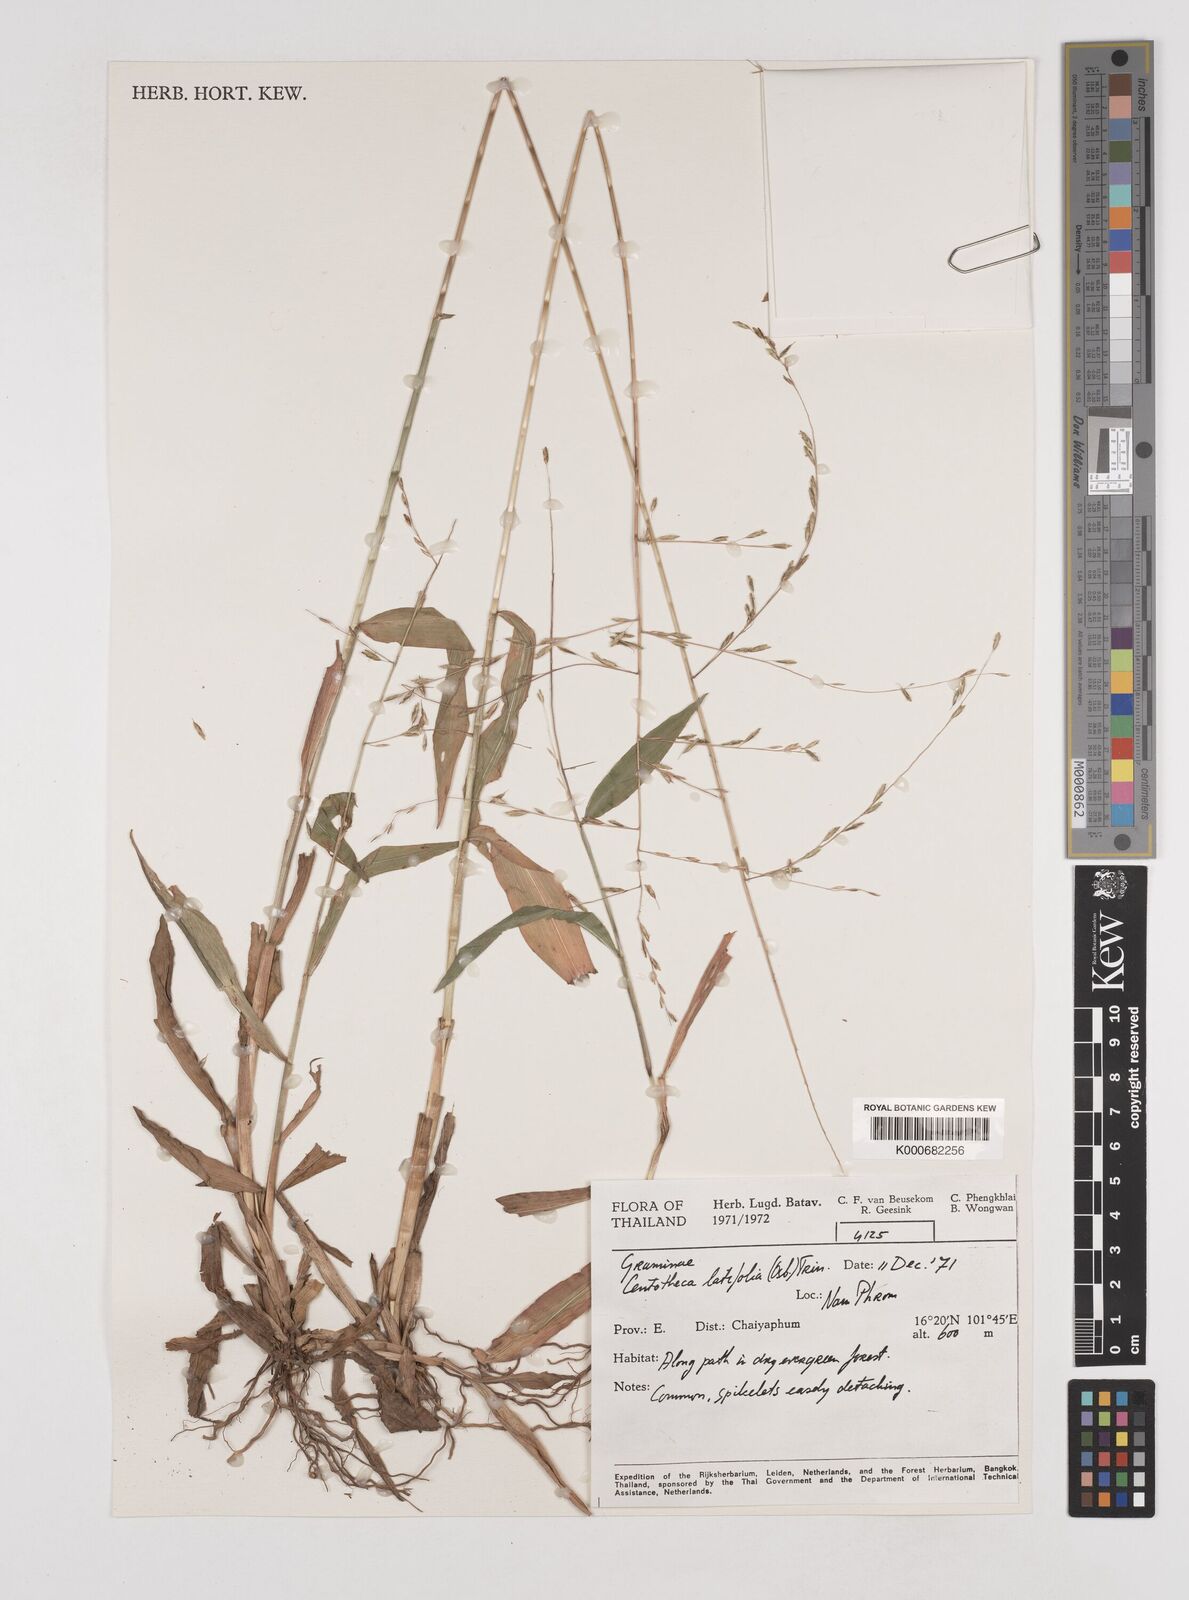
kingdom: Plantae
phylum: Tracheophyta
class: Liliopsida
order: Poales
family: Poaceae
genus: Centotheca
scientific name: Centotheca lappacea
